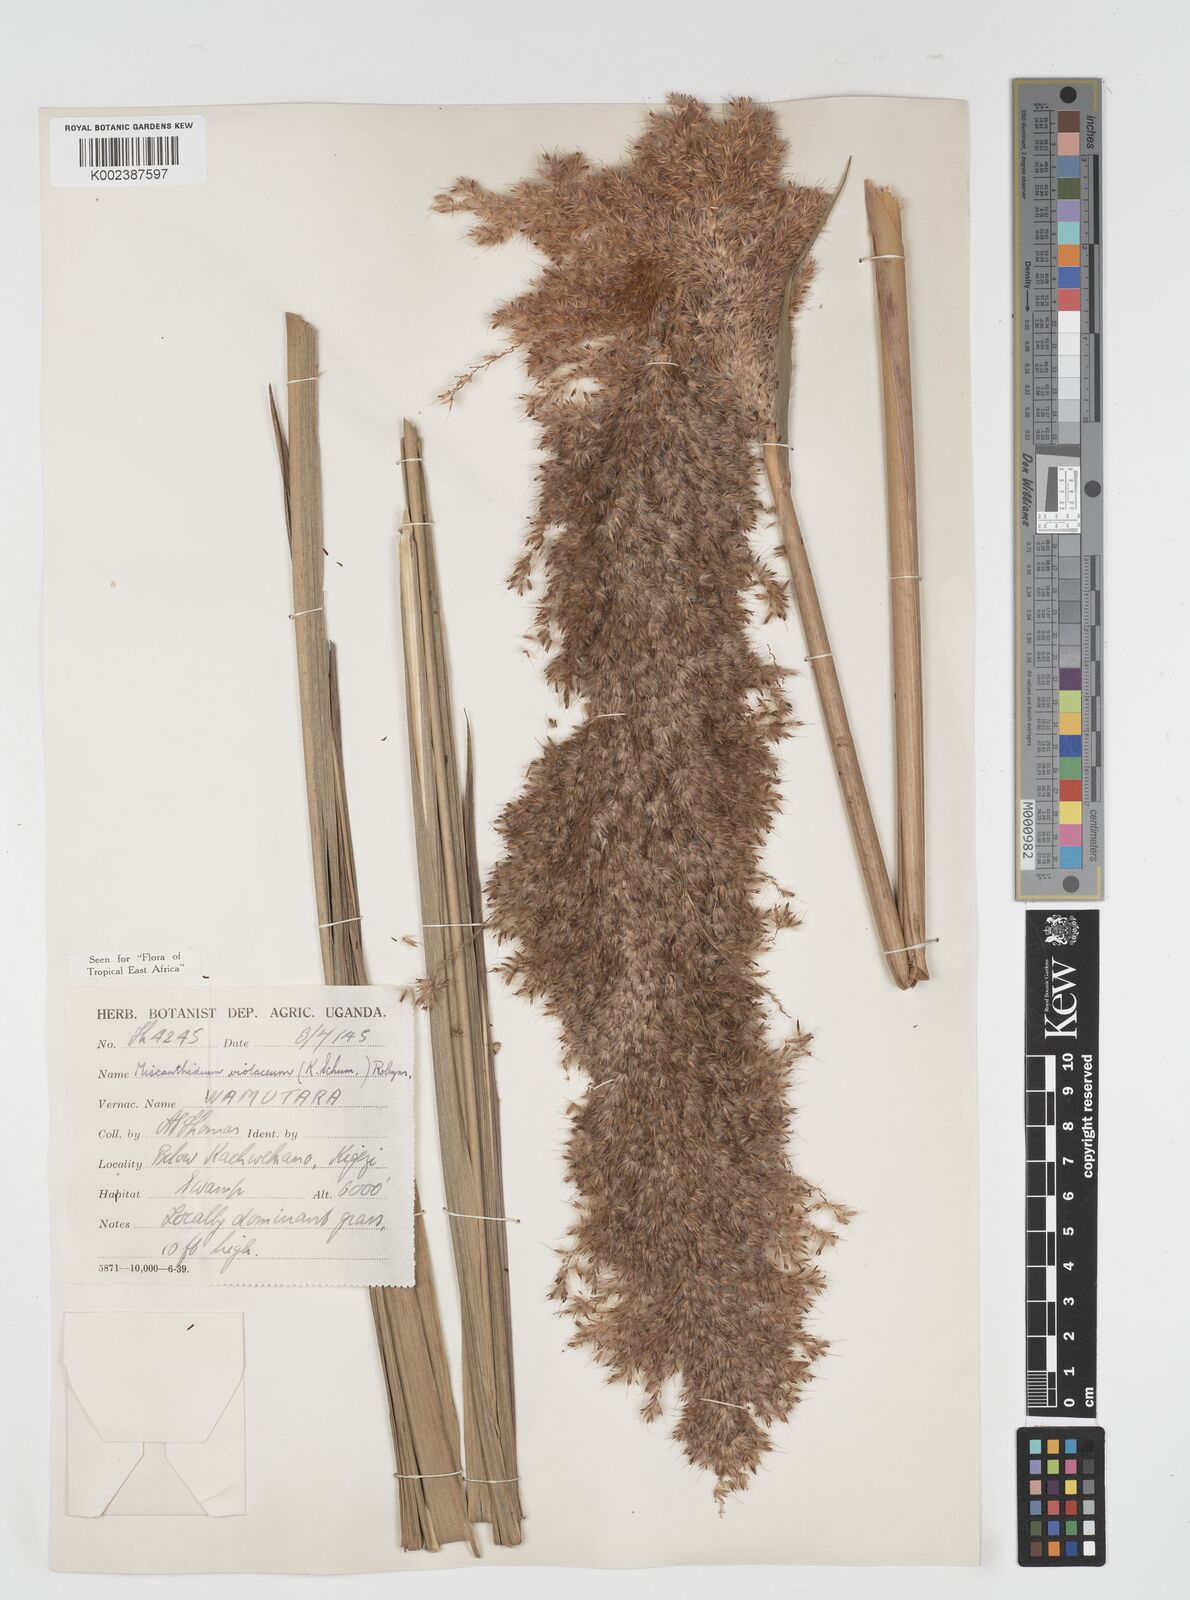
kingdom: Plantae
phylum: Tracheophyta
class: Liliopsida
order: Poales
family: Poaceae
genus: Miscanthidium
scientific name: Miscanthidium violaceum
